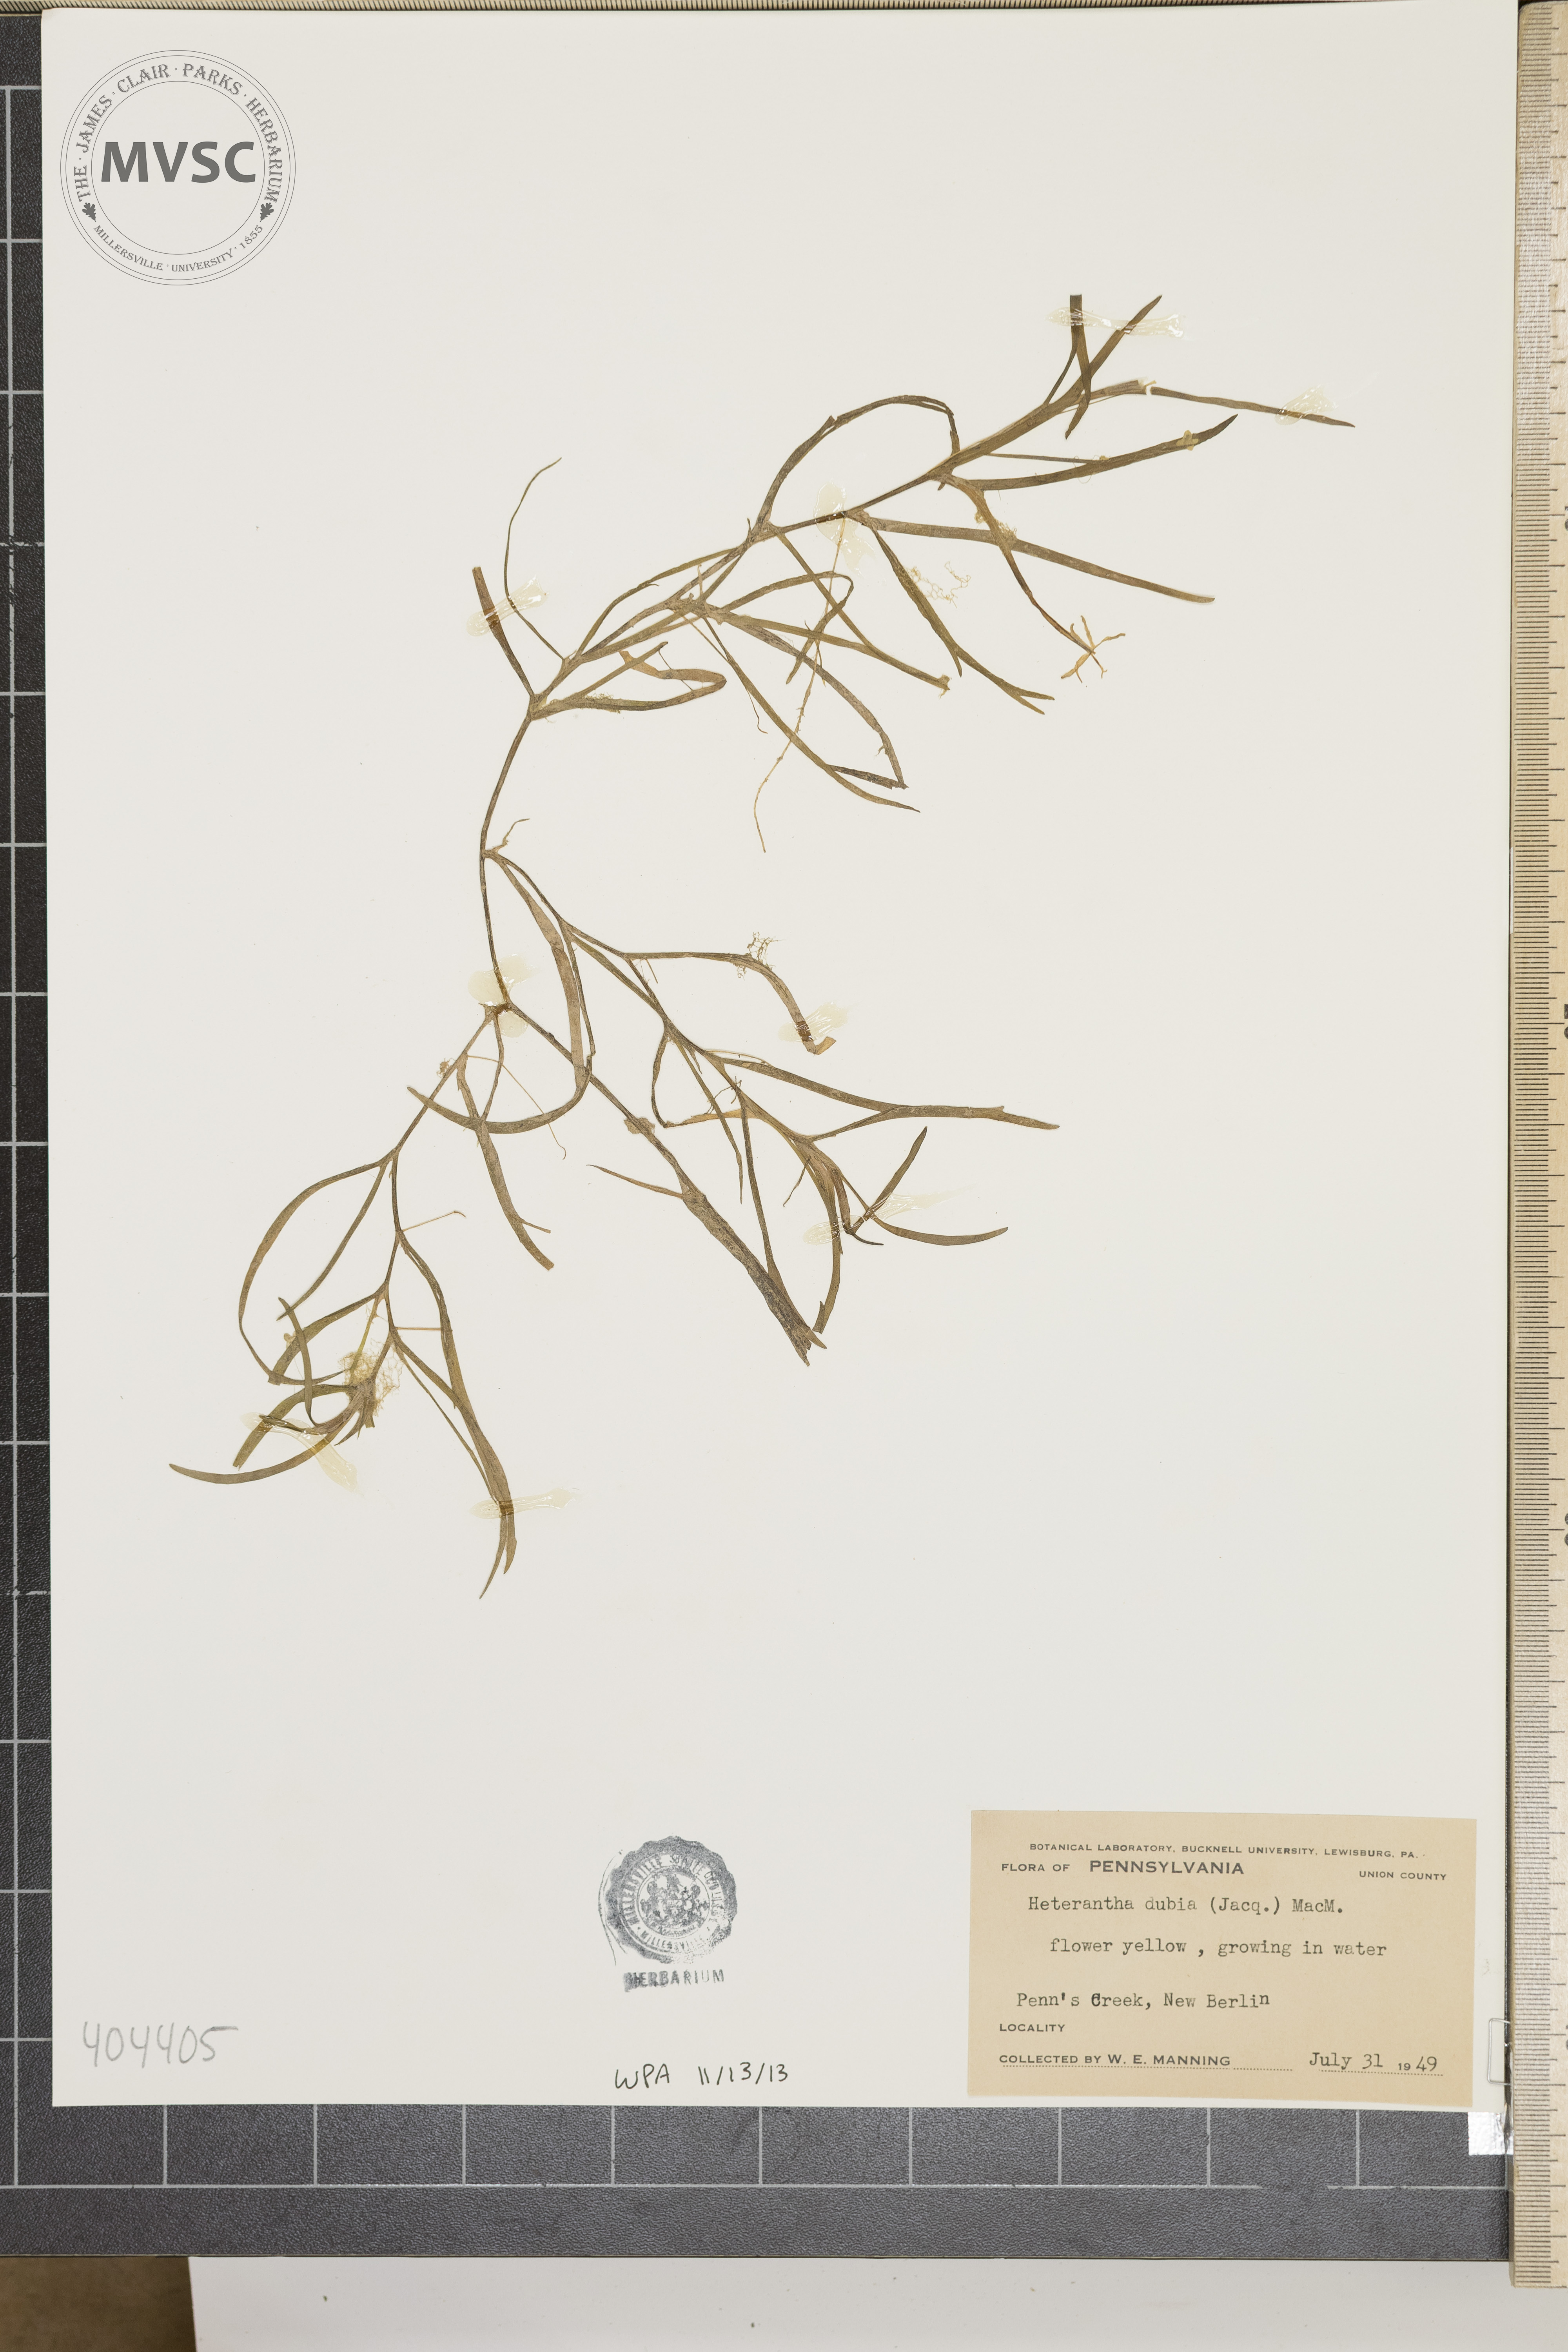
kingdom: Plantae
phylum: Tracheophyta
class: Liliopsida
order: Commelinales
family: Pontederiaceae
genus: Heteranthera
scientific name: Heteranthera dubia
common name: Grass-leaved mud plantain
